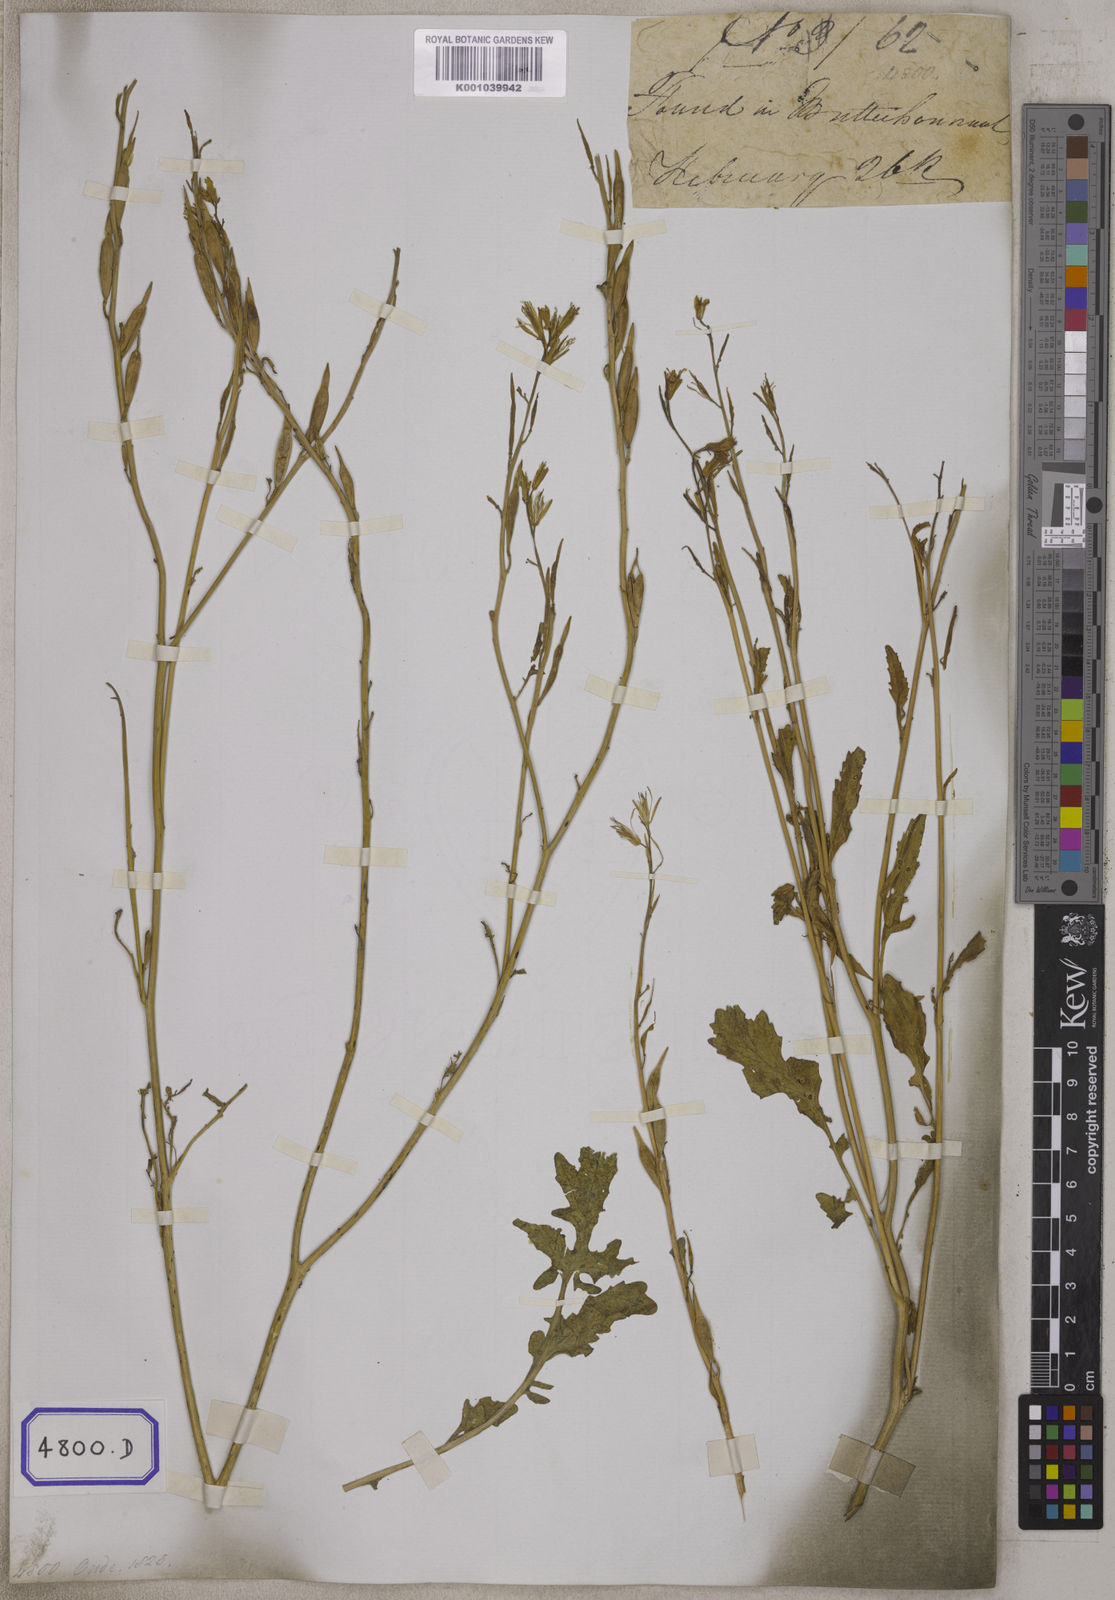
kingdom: Plantae
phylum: Tracheophyta
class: Magnoliopsida
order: Brassicales
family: Brassicaceae
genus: Eruca
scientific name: Eruca
